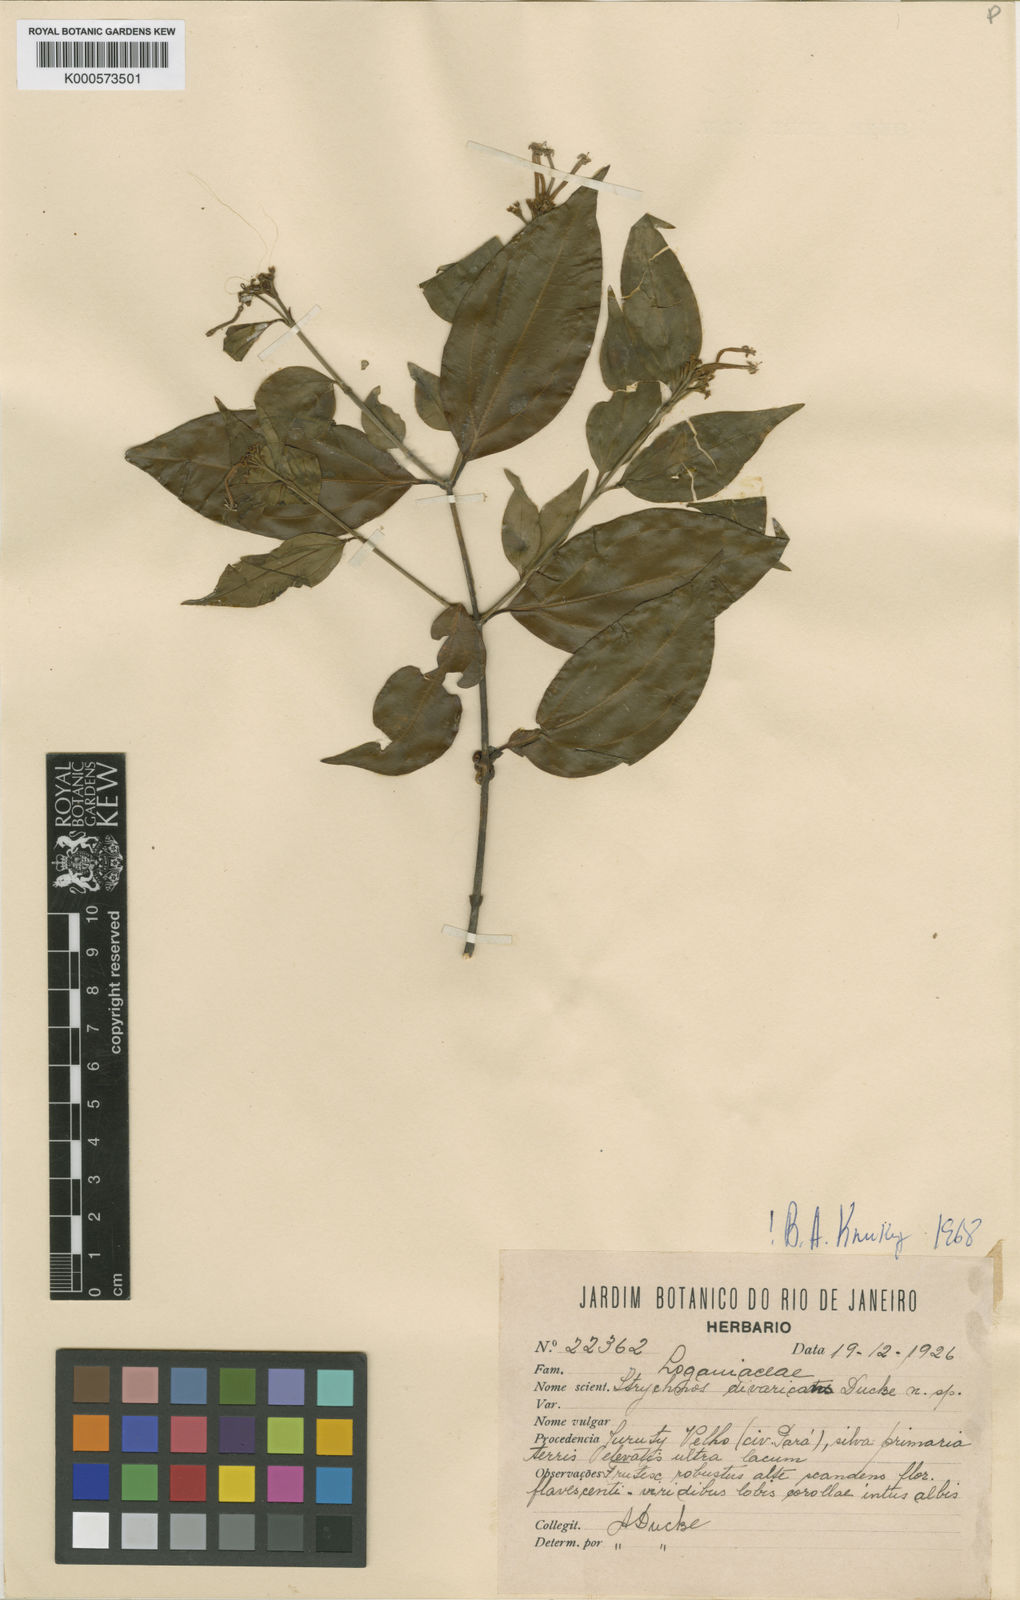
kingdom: Plantae
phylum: Tracheophyta
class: Magnoliopsida
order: Gentianales
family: Loganiaceae
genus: Strychnos
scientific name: Strychnos divaricans
